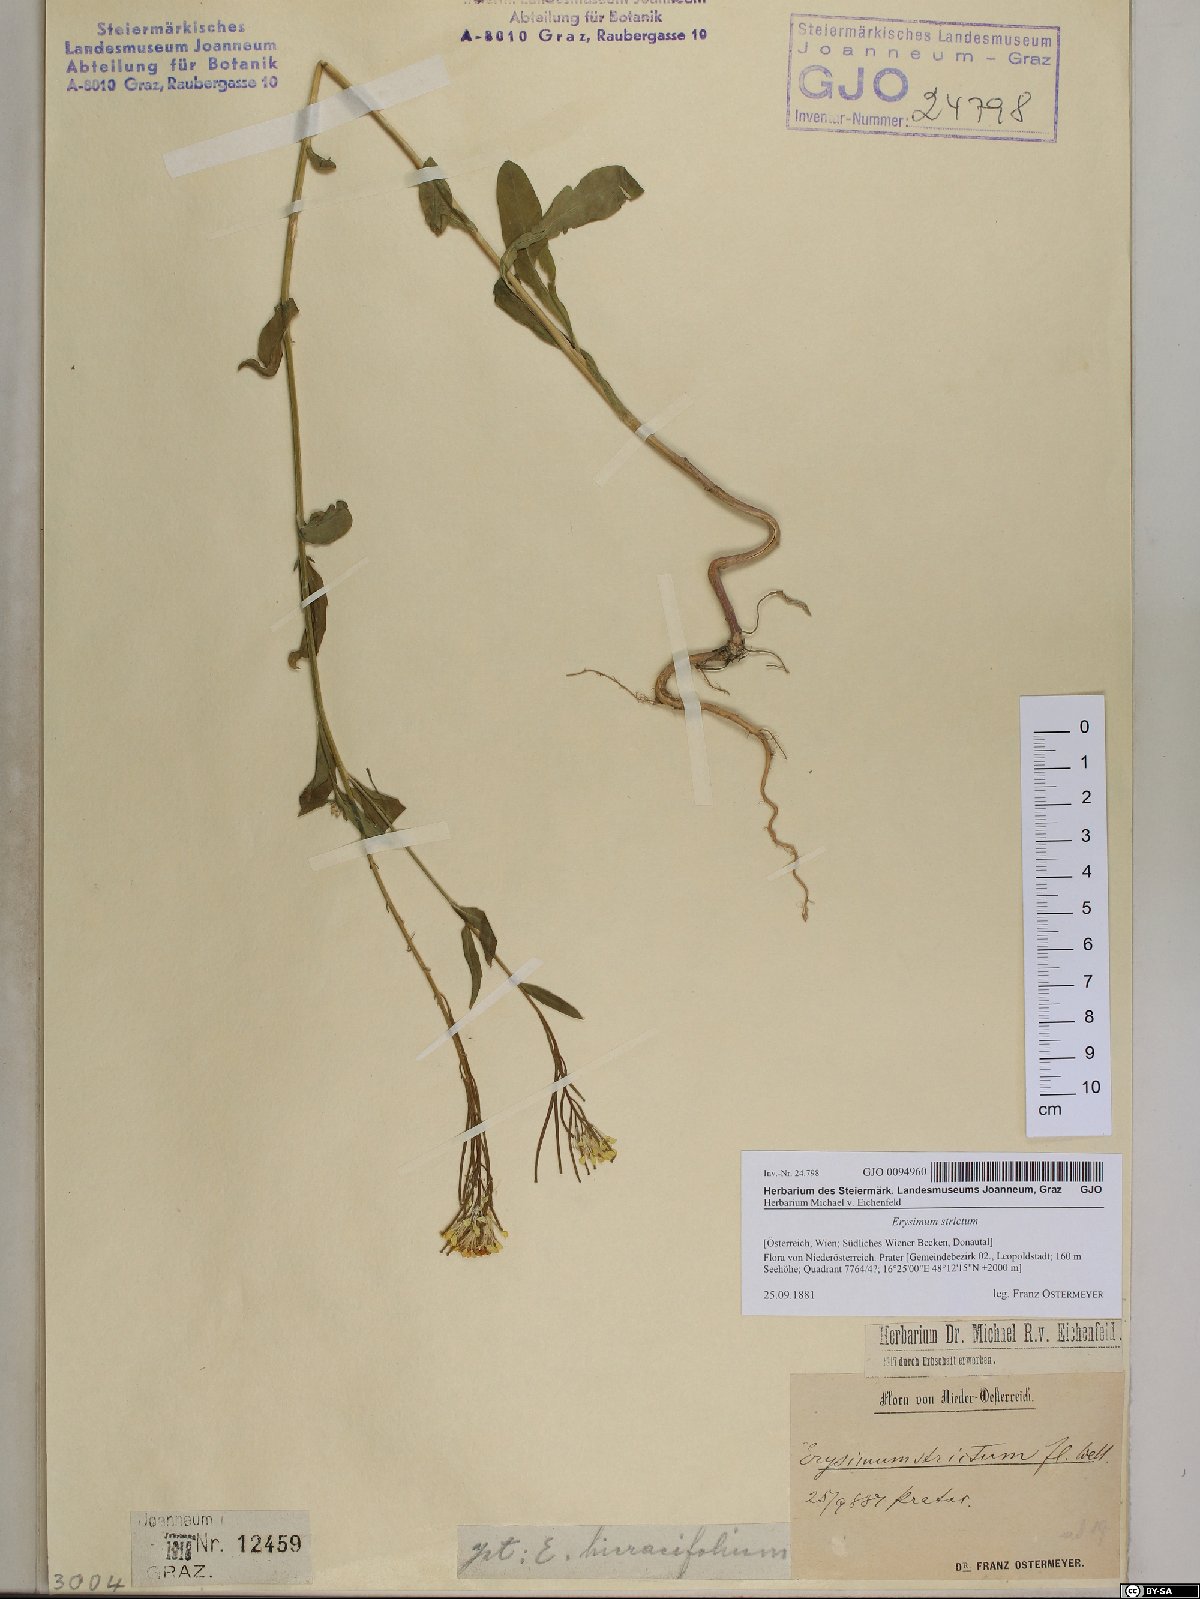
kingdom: Plantae
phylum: Tracheophyta
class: Magnoliopsida
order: Brassicales
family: Brassicaceae
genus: Erysimum
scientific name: Erysimum strictum
